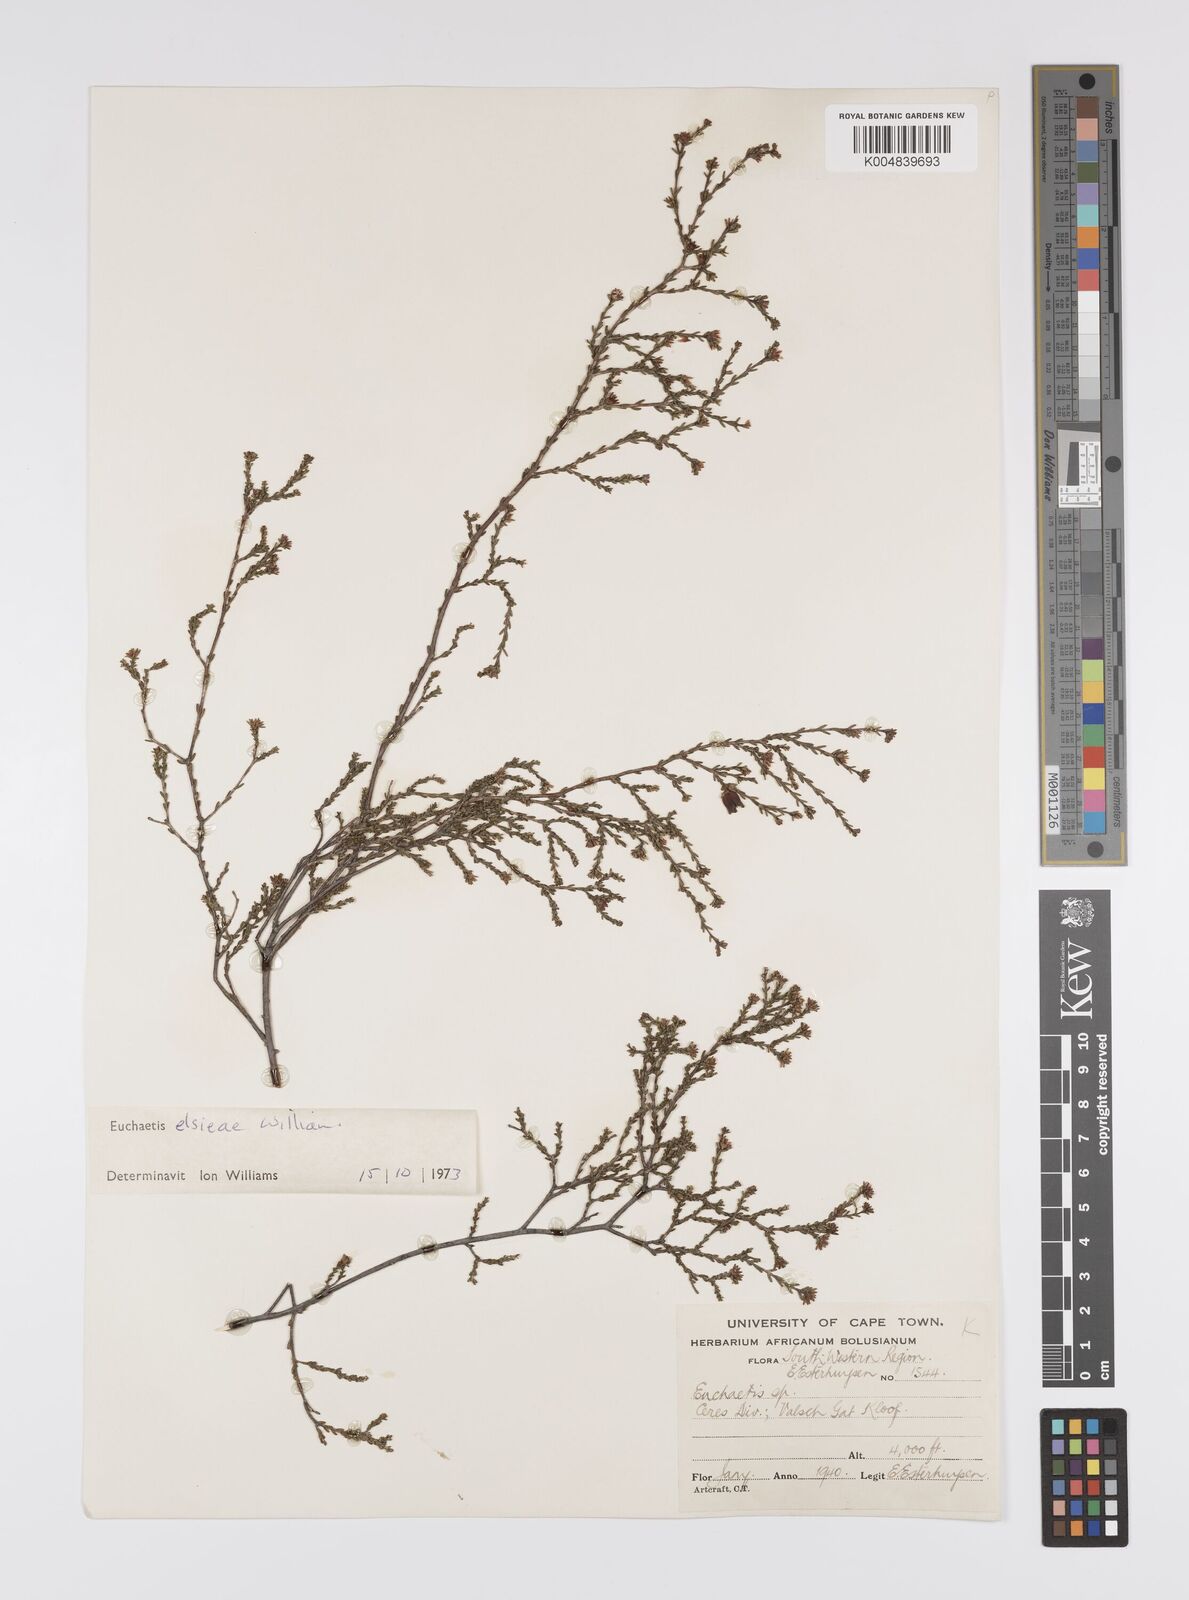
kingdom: Plantae
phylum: Tracheophyta
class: Magnoliopsida
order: Sapindales
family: Rutaceae
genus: Euchaetis
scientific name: Euchaetis elsieae
